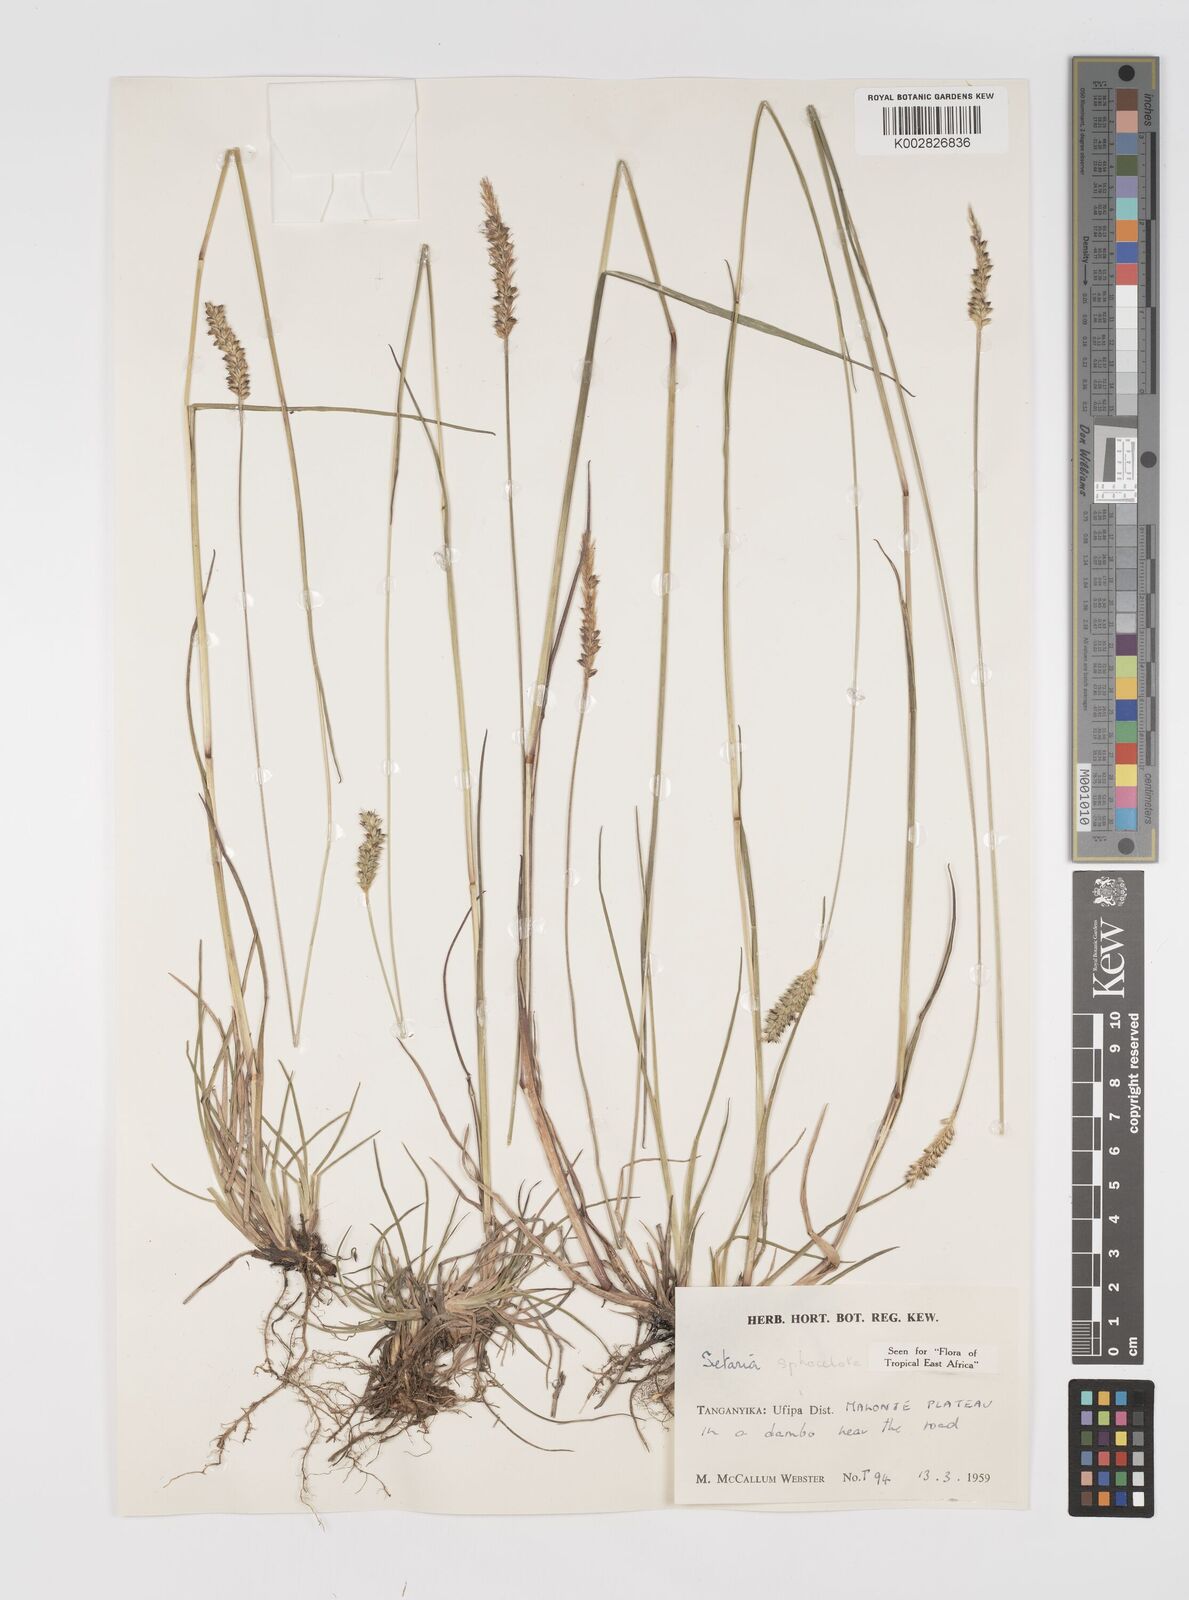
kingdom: Plantae
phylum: Tracheophyta
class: Liliopsida
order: Poales
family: Poaceae
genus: Setaria
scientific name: Setaria sphacelata
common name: African bristlegrass
